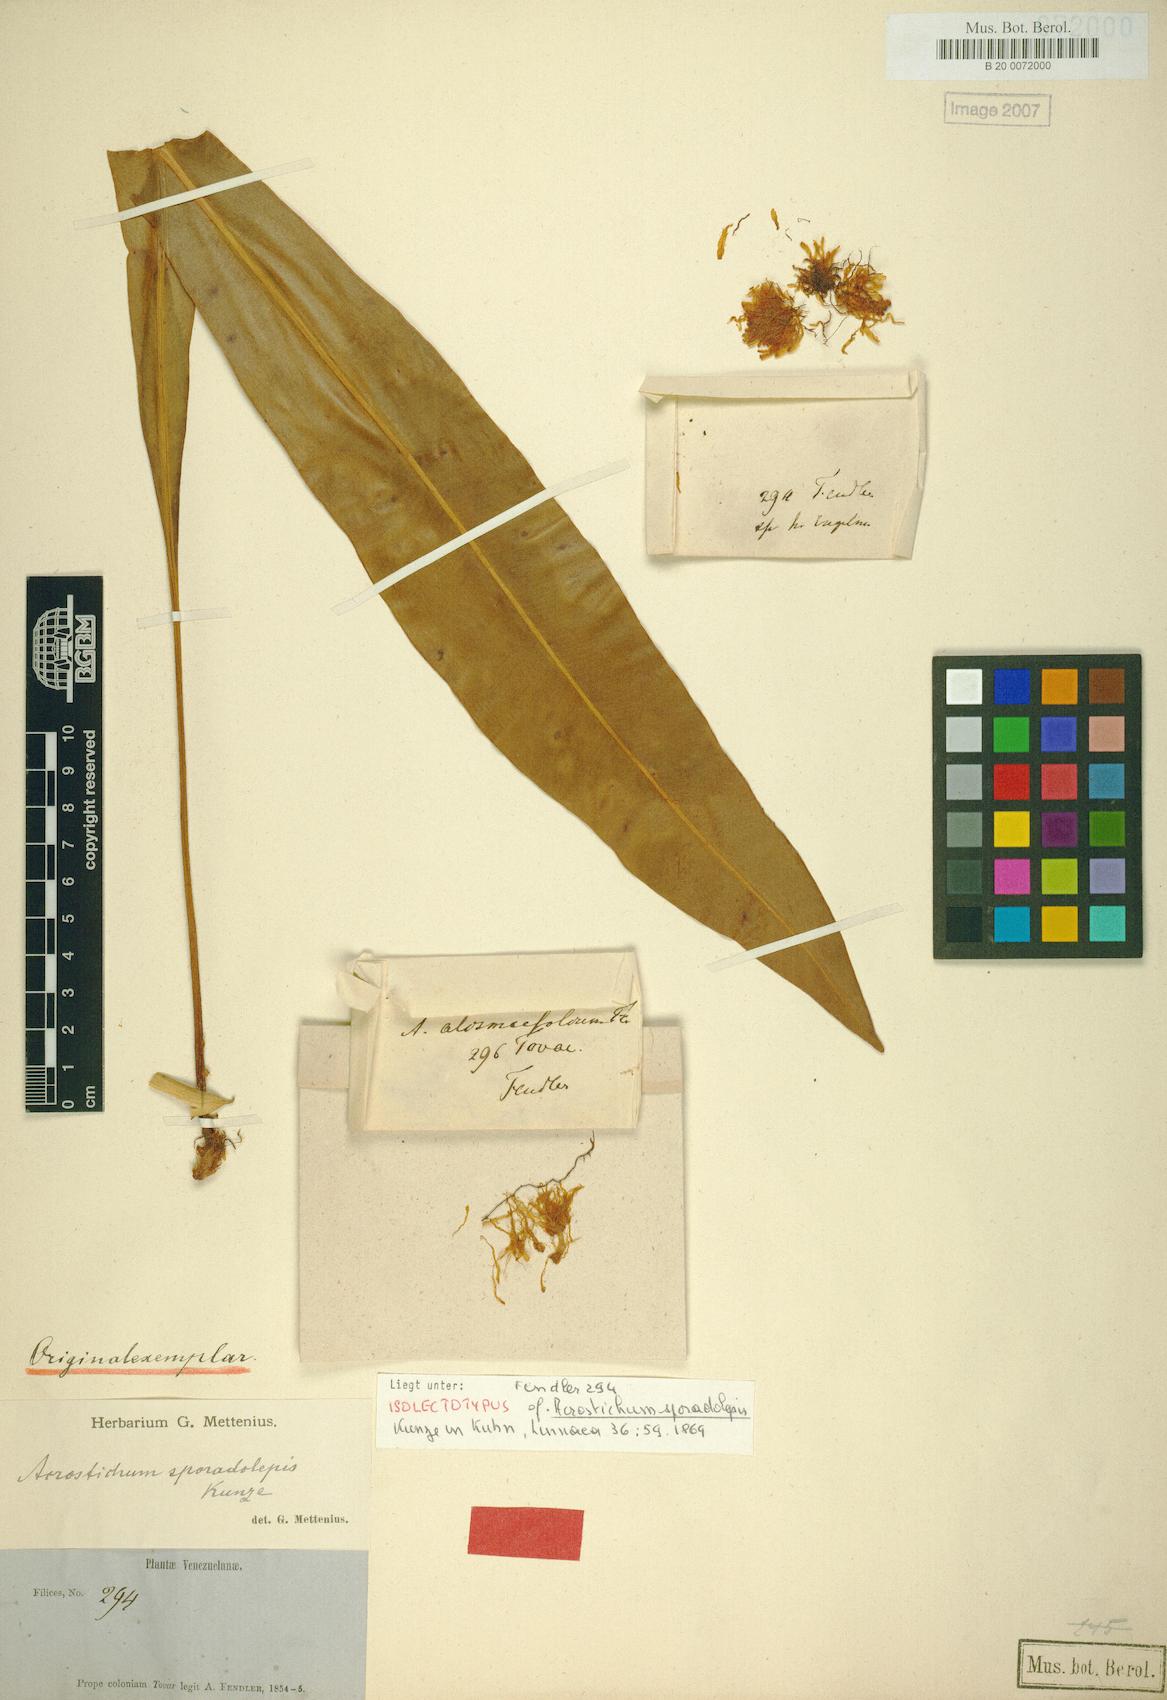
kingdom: Plantae
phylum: Tracheophyta
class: Polypodiopsida
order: Polypodiales
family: Dryopteridaceae
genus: Elaphoglossum
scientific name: Elaphoglossum sporadolepis
